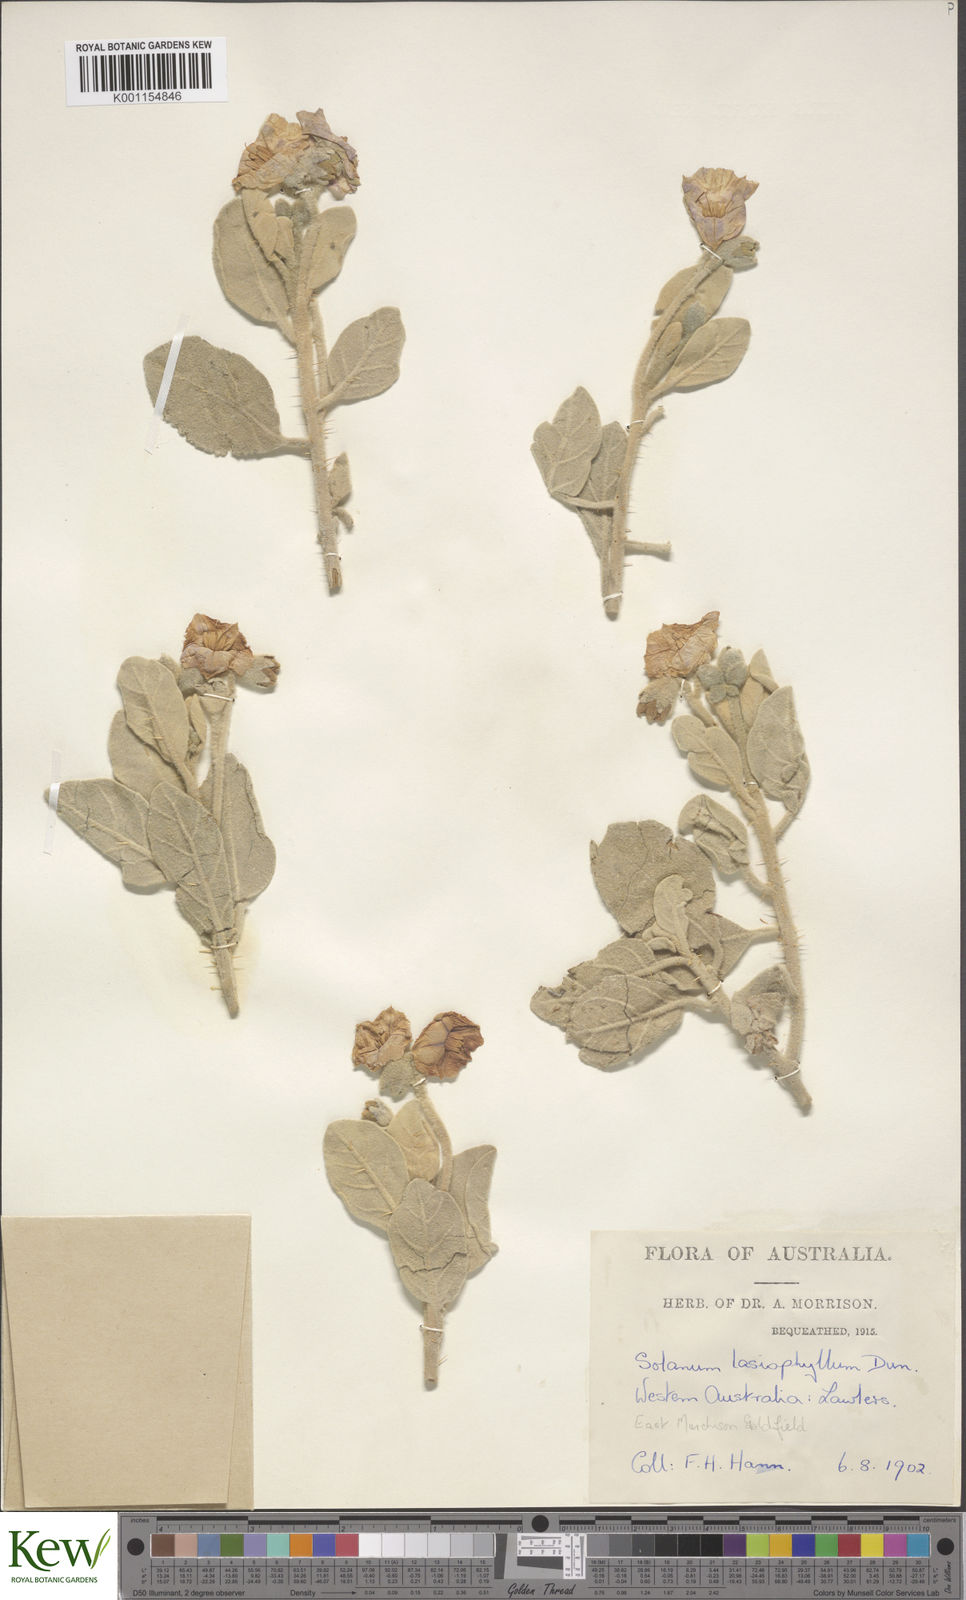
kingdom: Plantae
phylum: Tracheophyta
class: Magnoliopsida
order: Solanales
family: Solanaceae
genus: Solanum
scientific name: Solanum lasiophyllum
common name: Flannelbush
